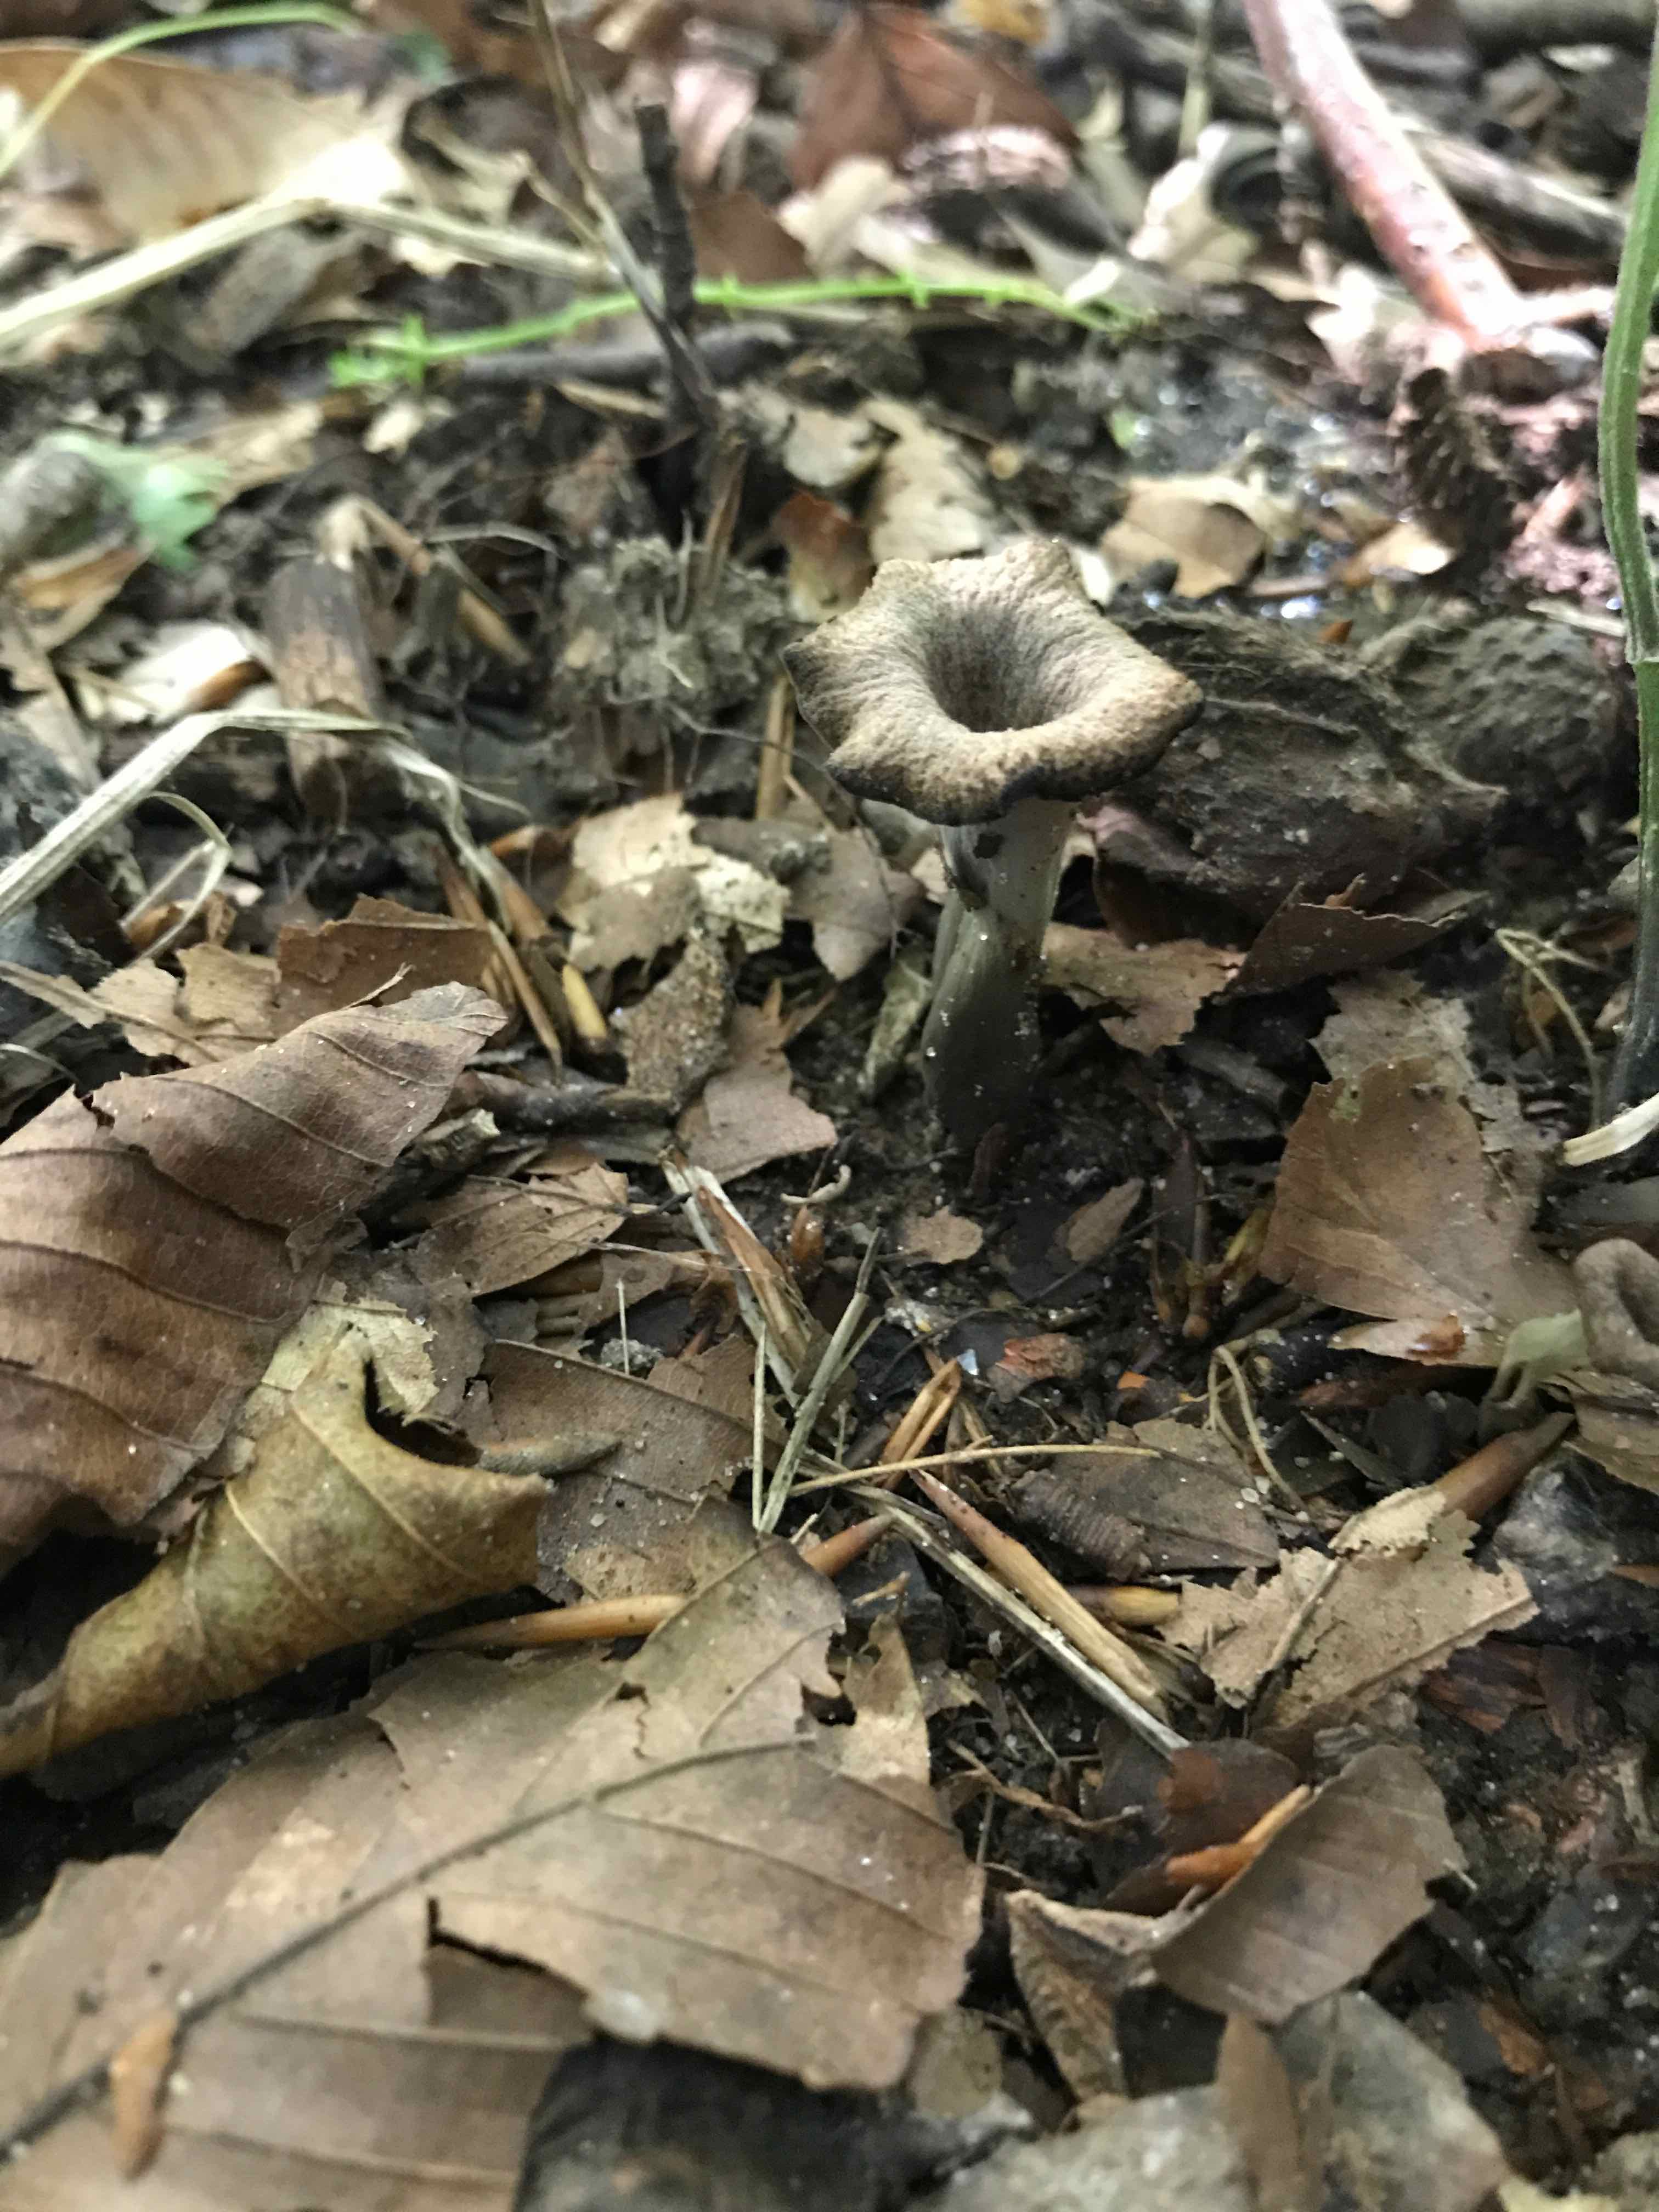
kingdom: Fungi
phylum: Basidiomycota
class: Agaricomycetes
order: Cantharellales
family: Hydnaceae
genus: Craterellus
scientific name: Craterellus cornucopioides
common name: trompetsvamp
